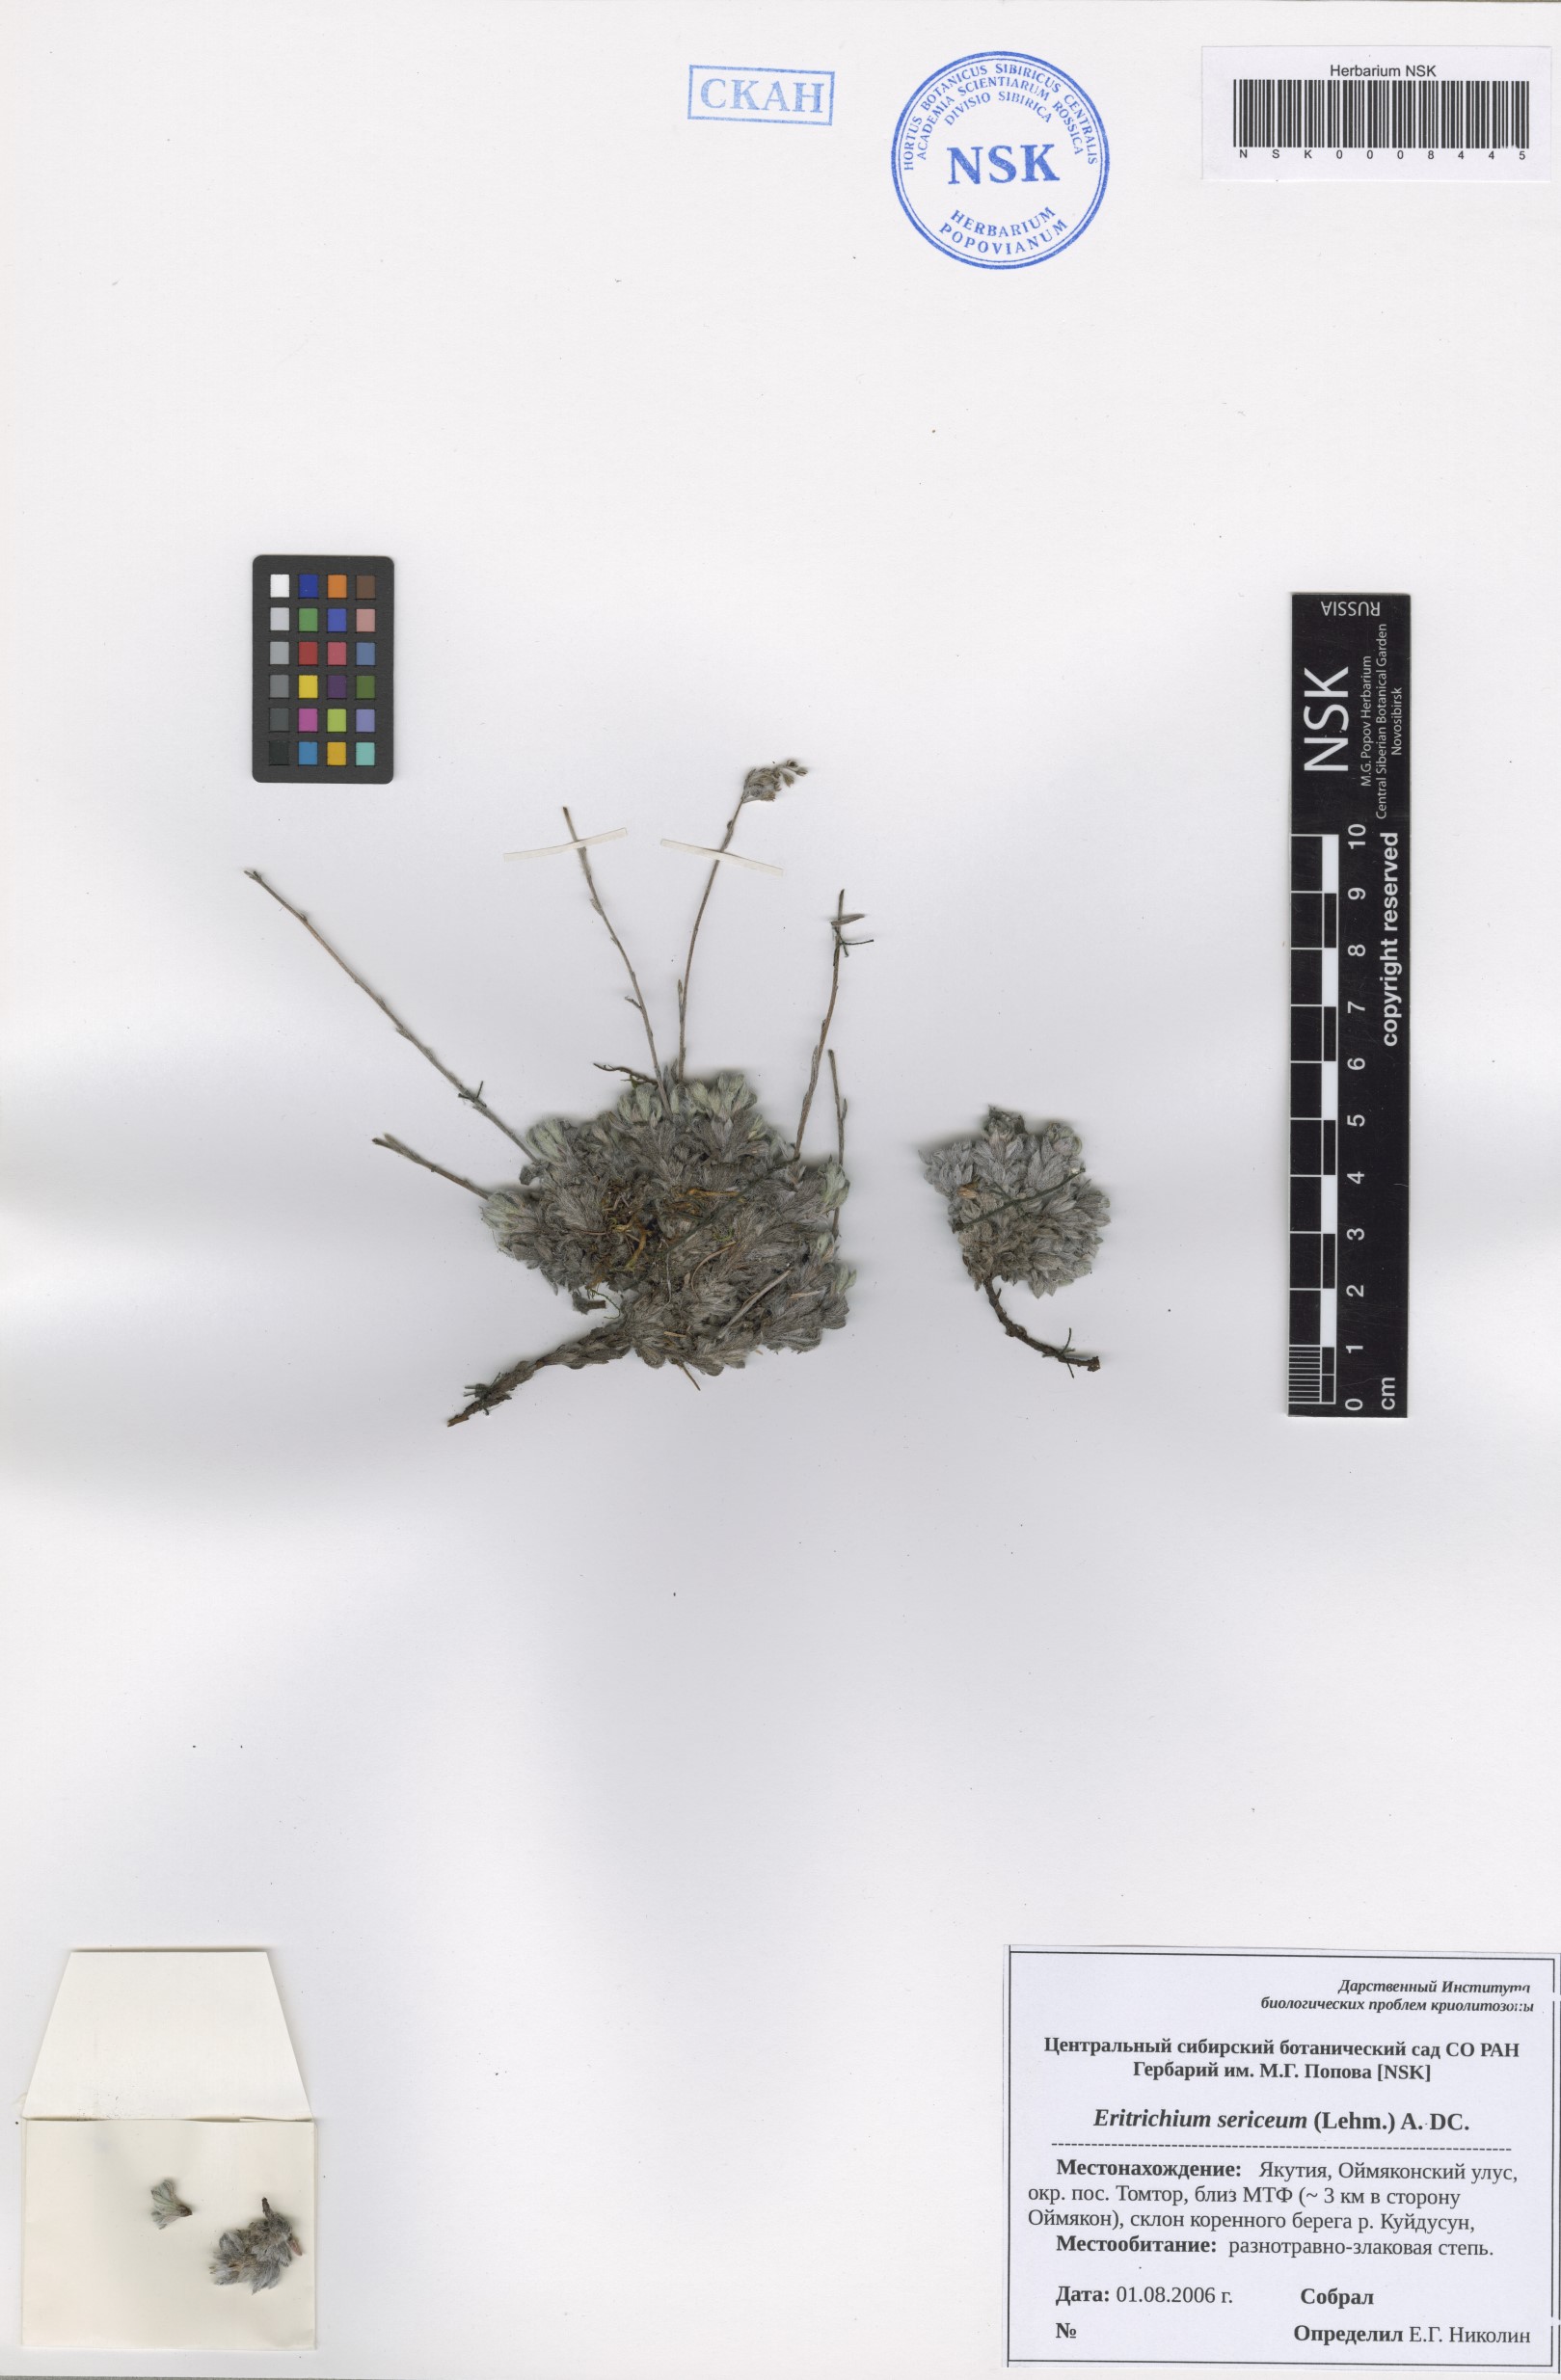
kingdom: Plantae
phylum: Tracheophyta
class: Magnoliopsida
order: Boraginales
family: Boraginaceae
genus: Eritrichium
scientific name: Eritrichium sericeum
